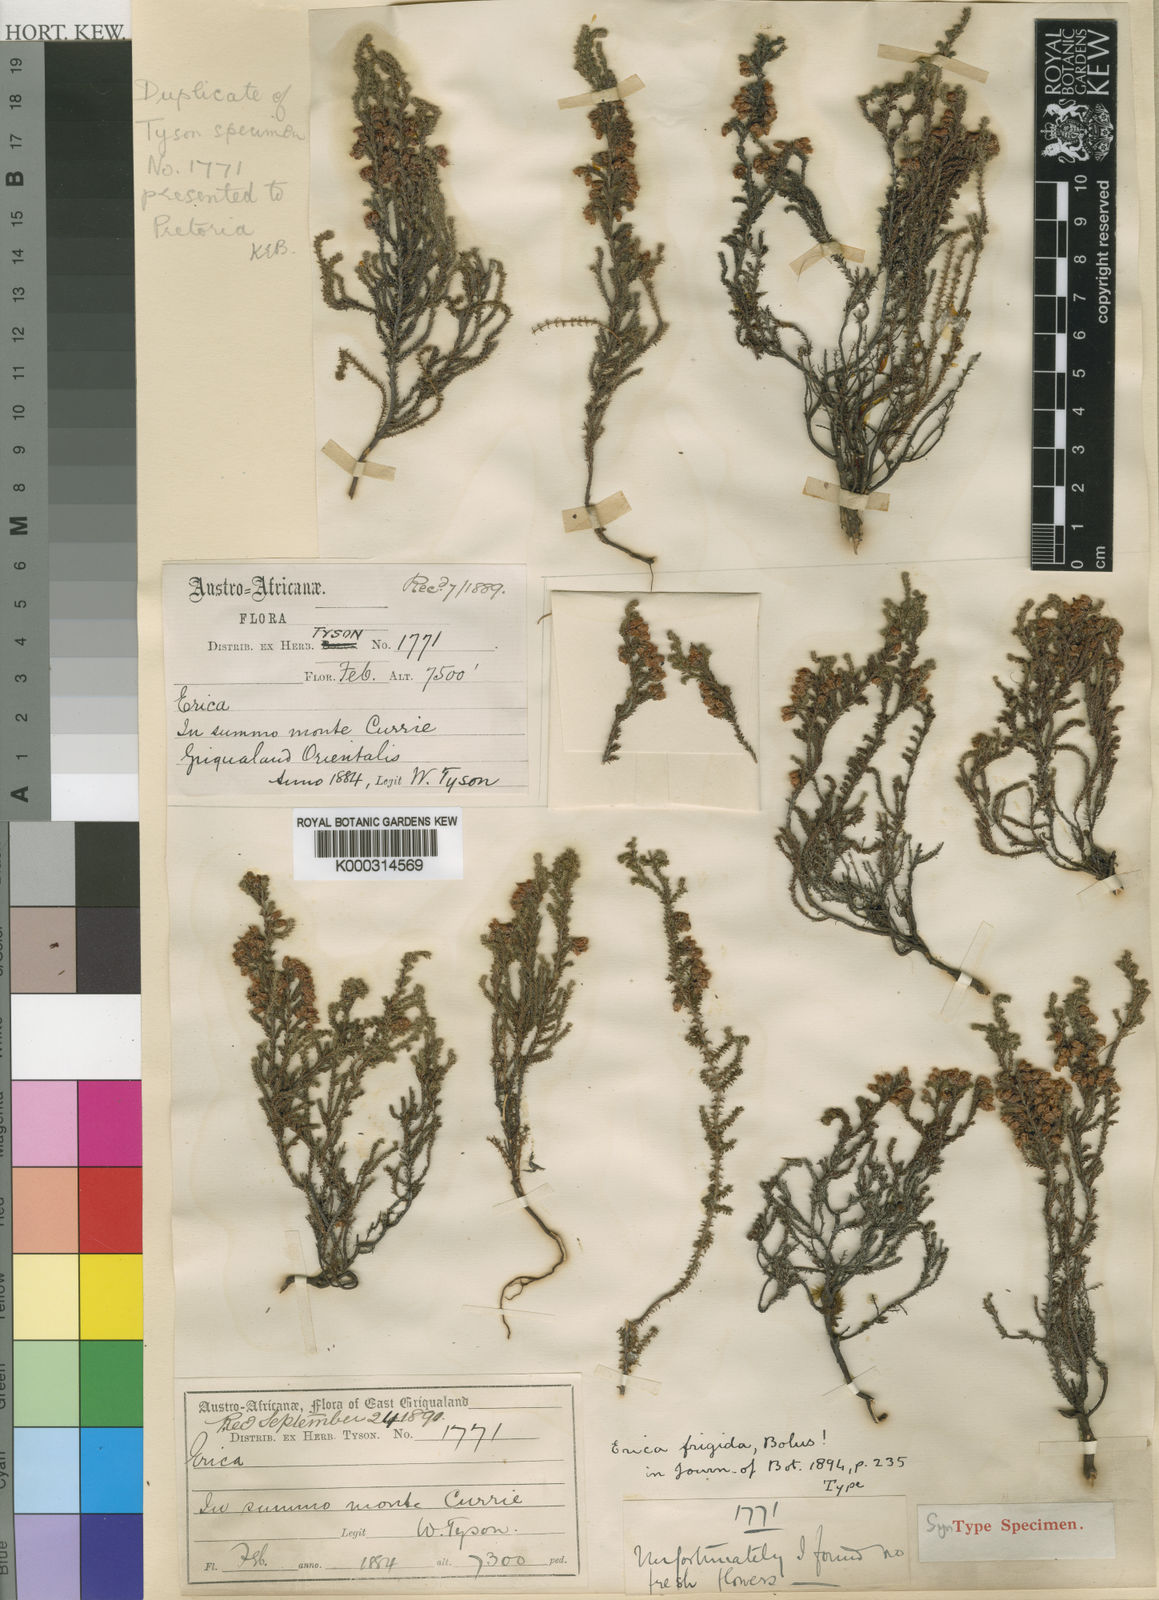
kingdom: Plantae
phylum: Tracheophyta
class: Magnoliopsida
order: Ericales
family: Ericaceae
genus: Erica
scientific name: Erica frigida
